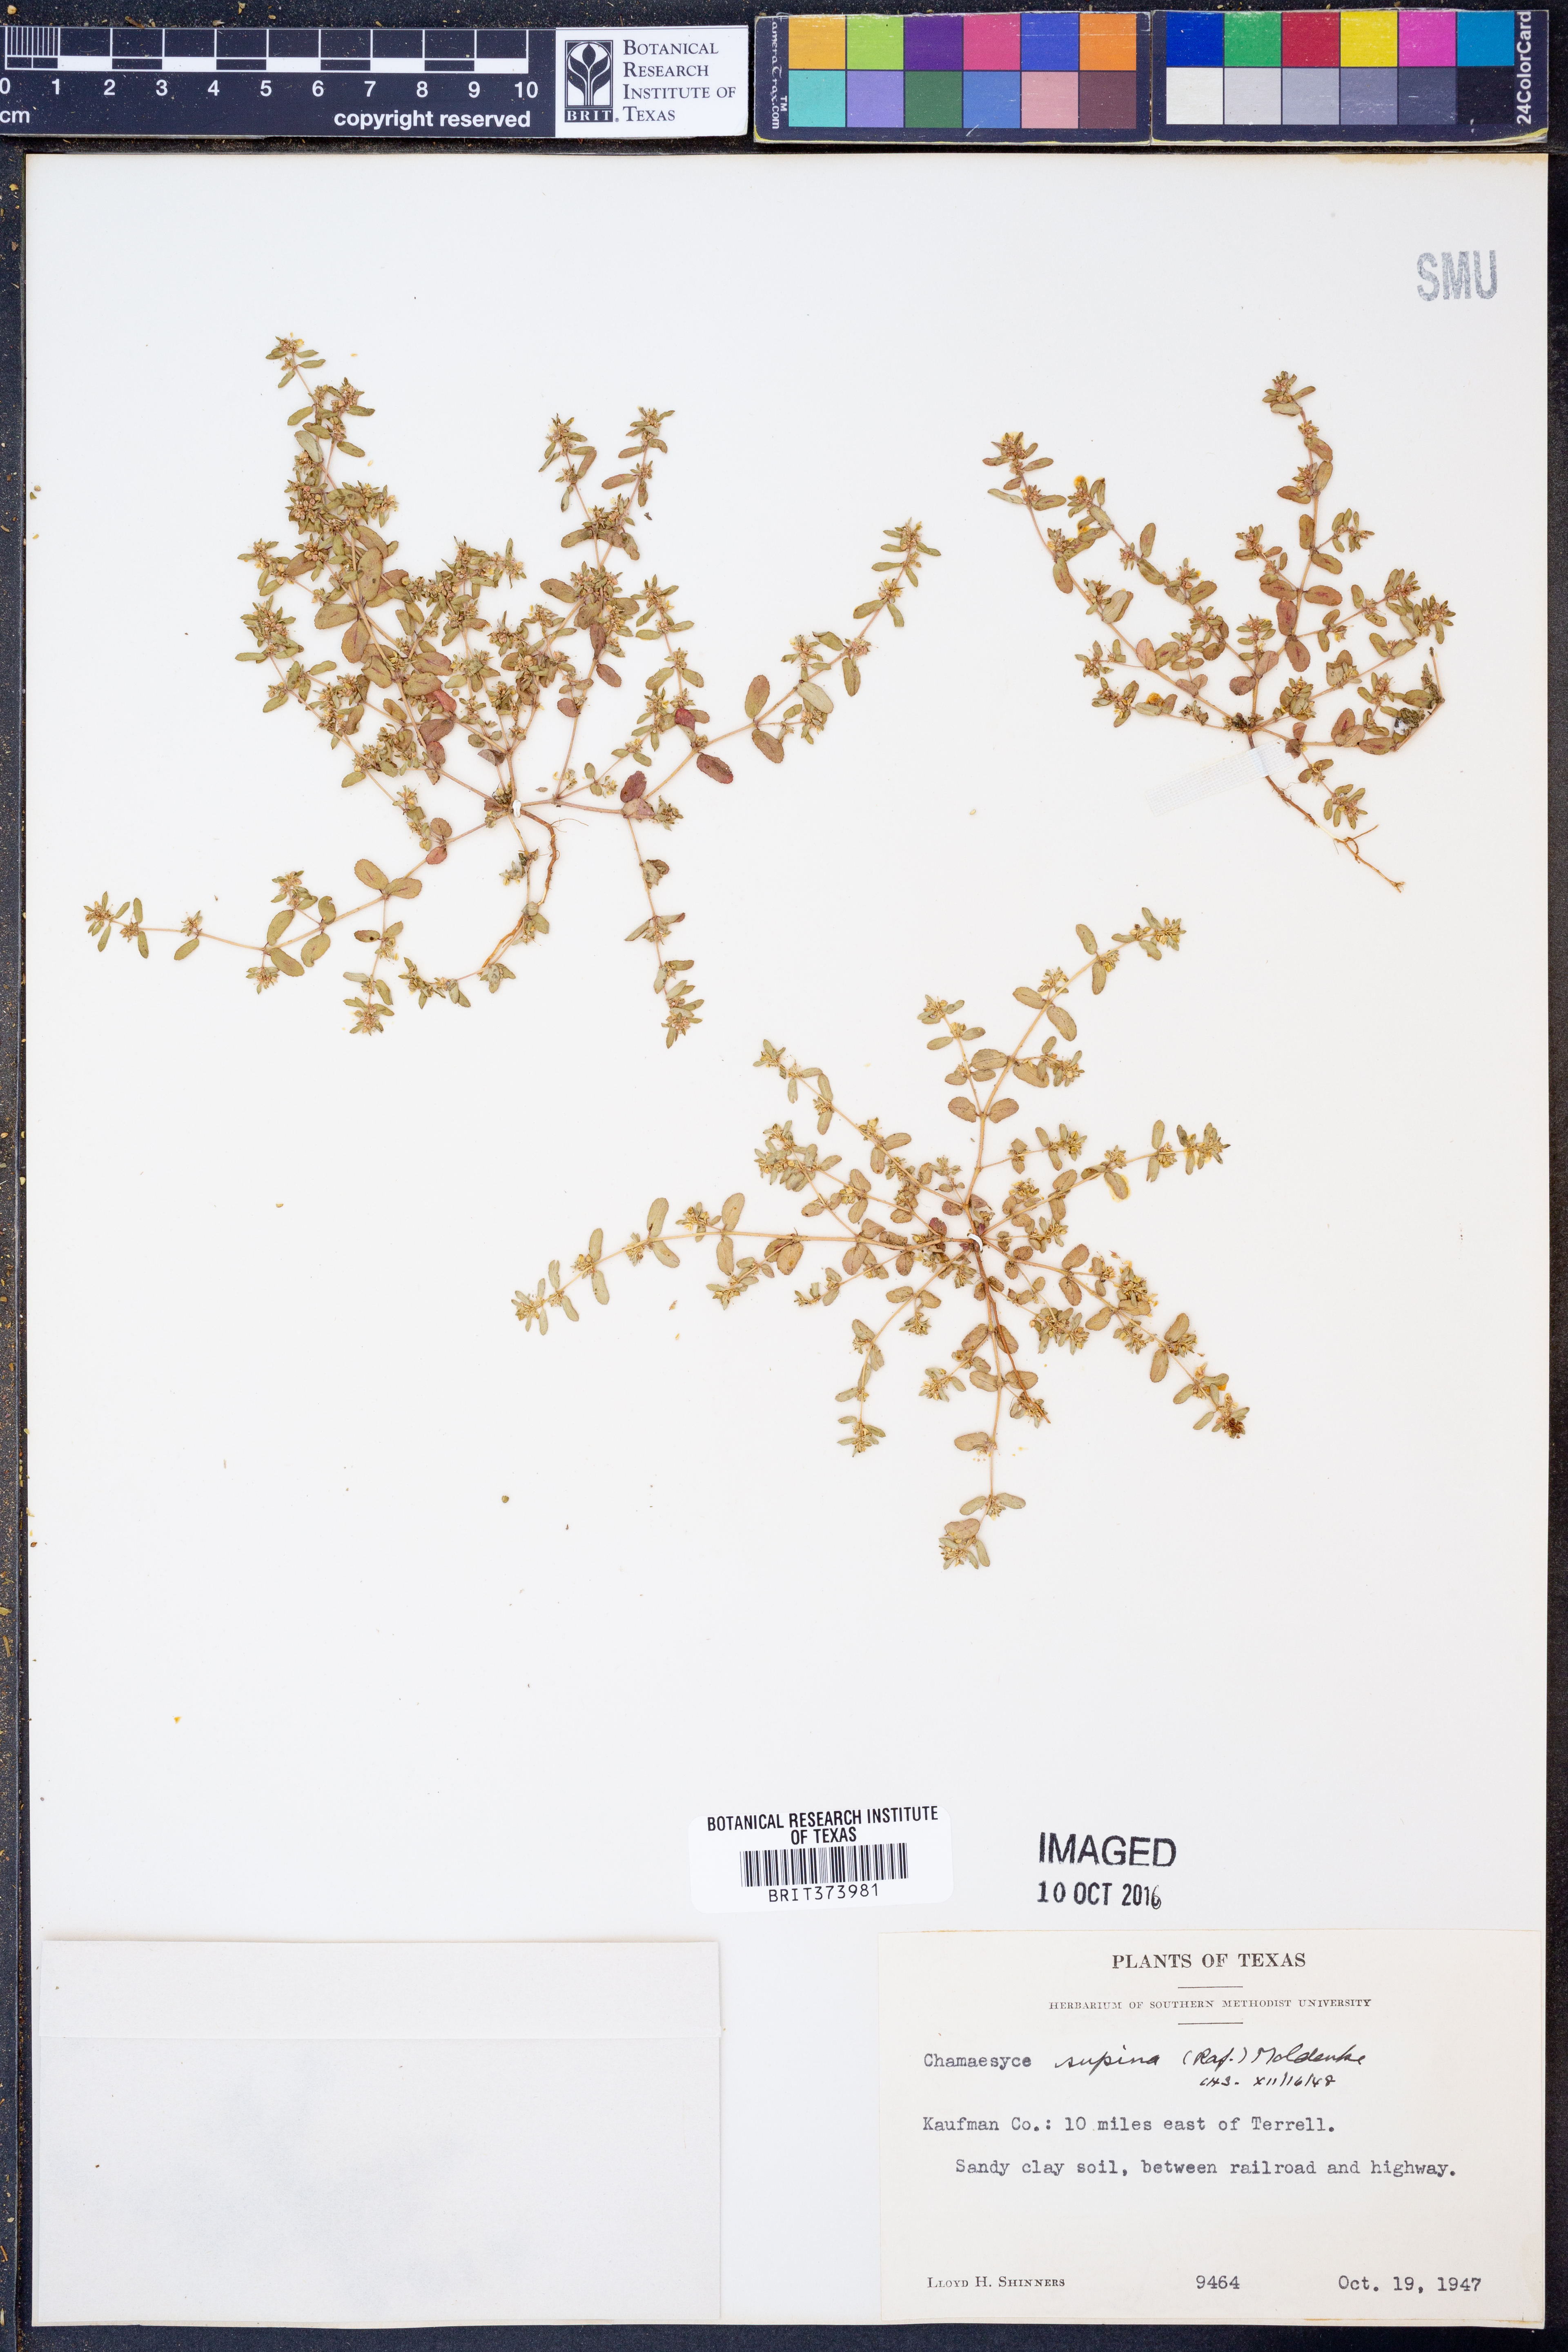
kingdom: Plantae
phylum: Tracheophyta
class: Magnoliopsida
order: Malpighiales
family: Euphorbiaceae
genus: Euphorbia
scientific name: Euphorbia maculata
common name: Spotted spurge
